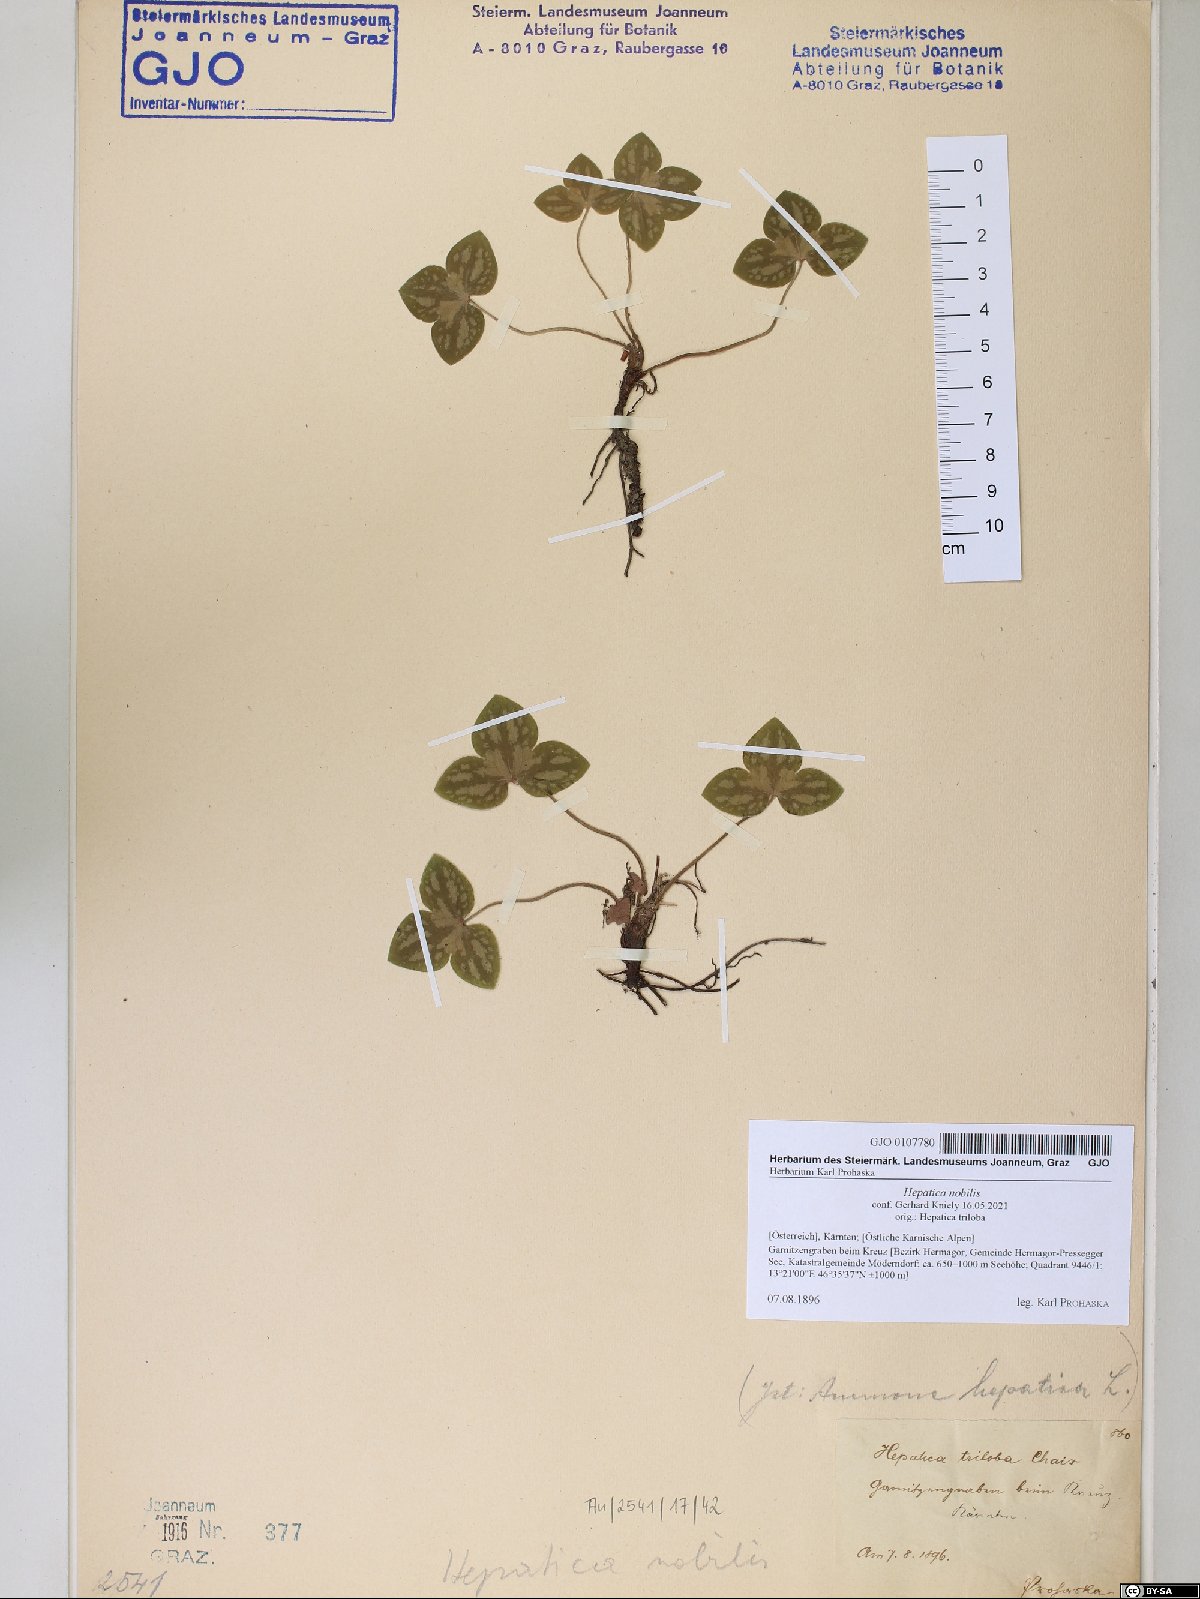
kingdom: Plantae
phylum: Tracheophyta
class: Magnoliopsida
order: Ranunculales
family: Ranunculaceae
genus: Hepatica
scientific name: Hepatica nobilis
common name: Liverleaf
